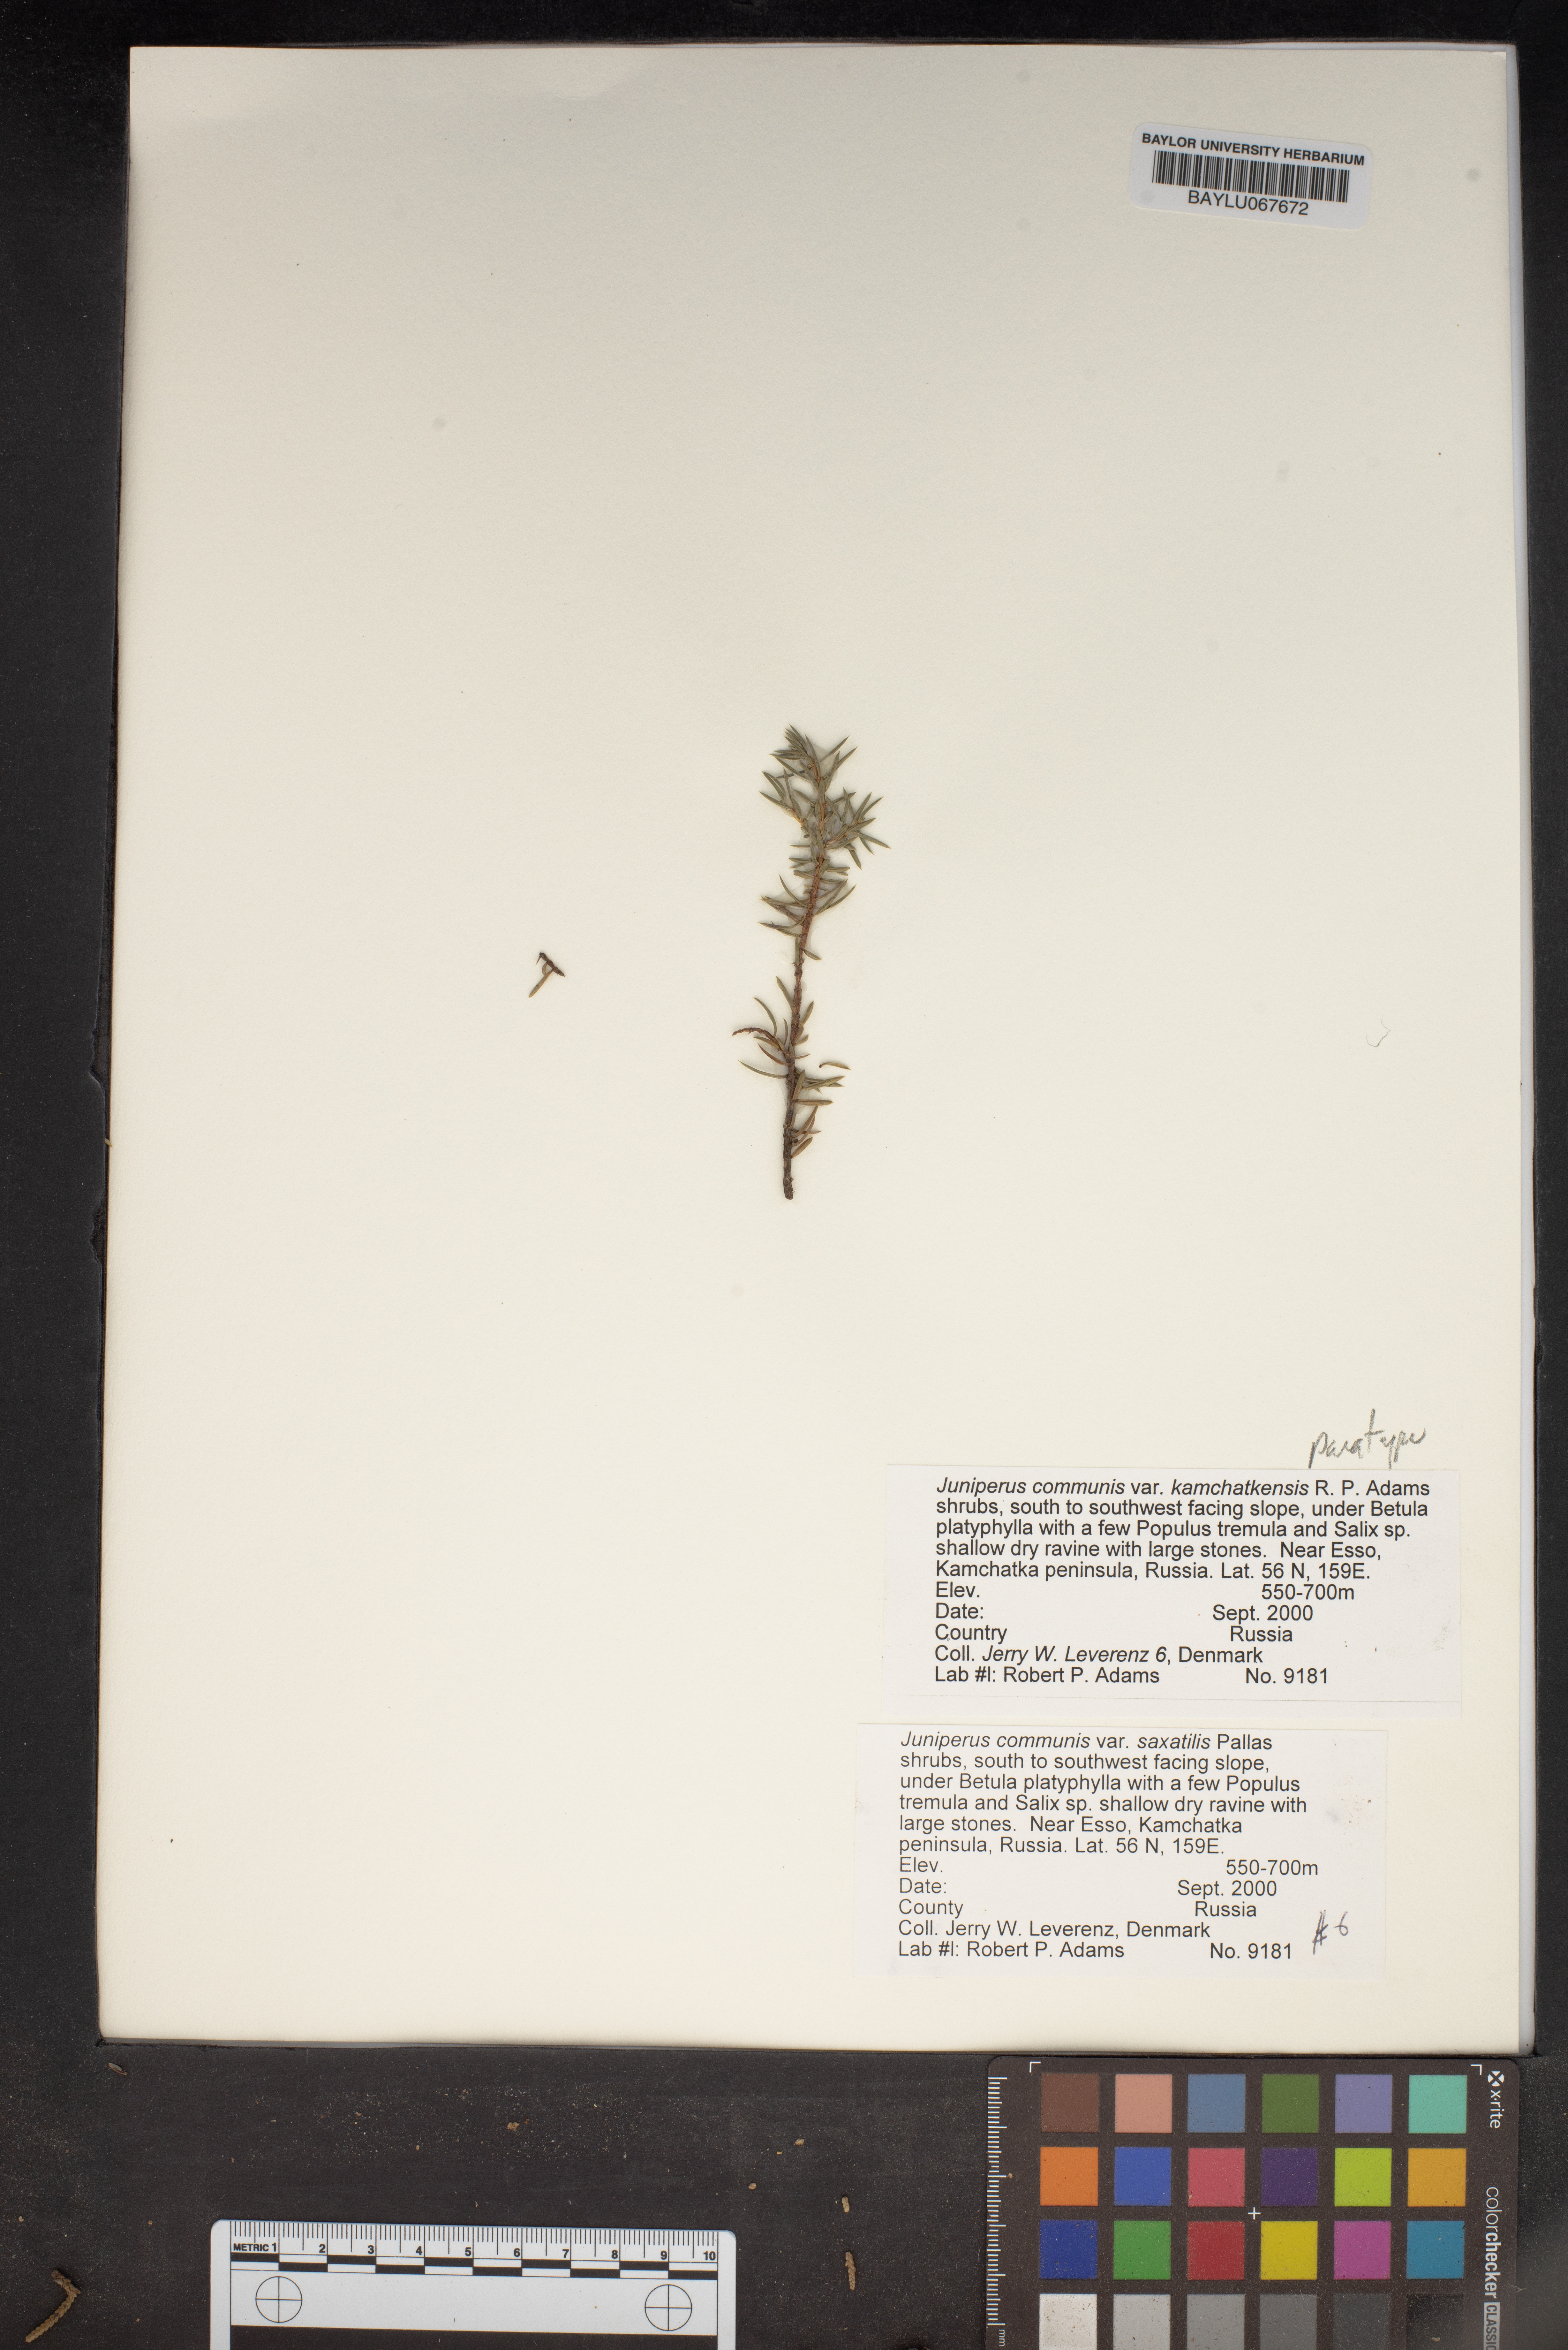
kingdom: Plantae
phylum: Tracheophyta
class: Pinopsida
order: Pinales
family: Cupressaceae
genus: Juniperus
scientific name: Juniperus communis
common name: Common juniper
